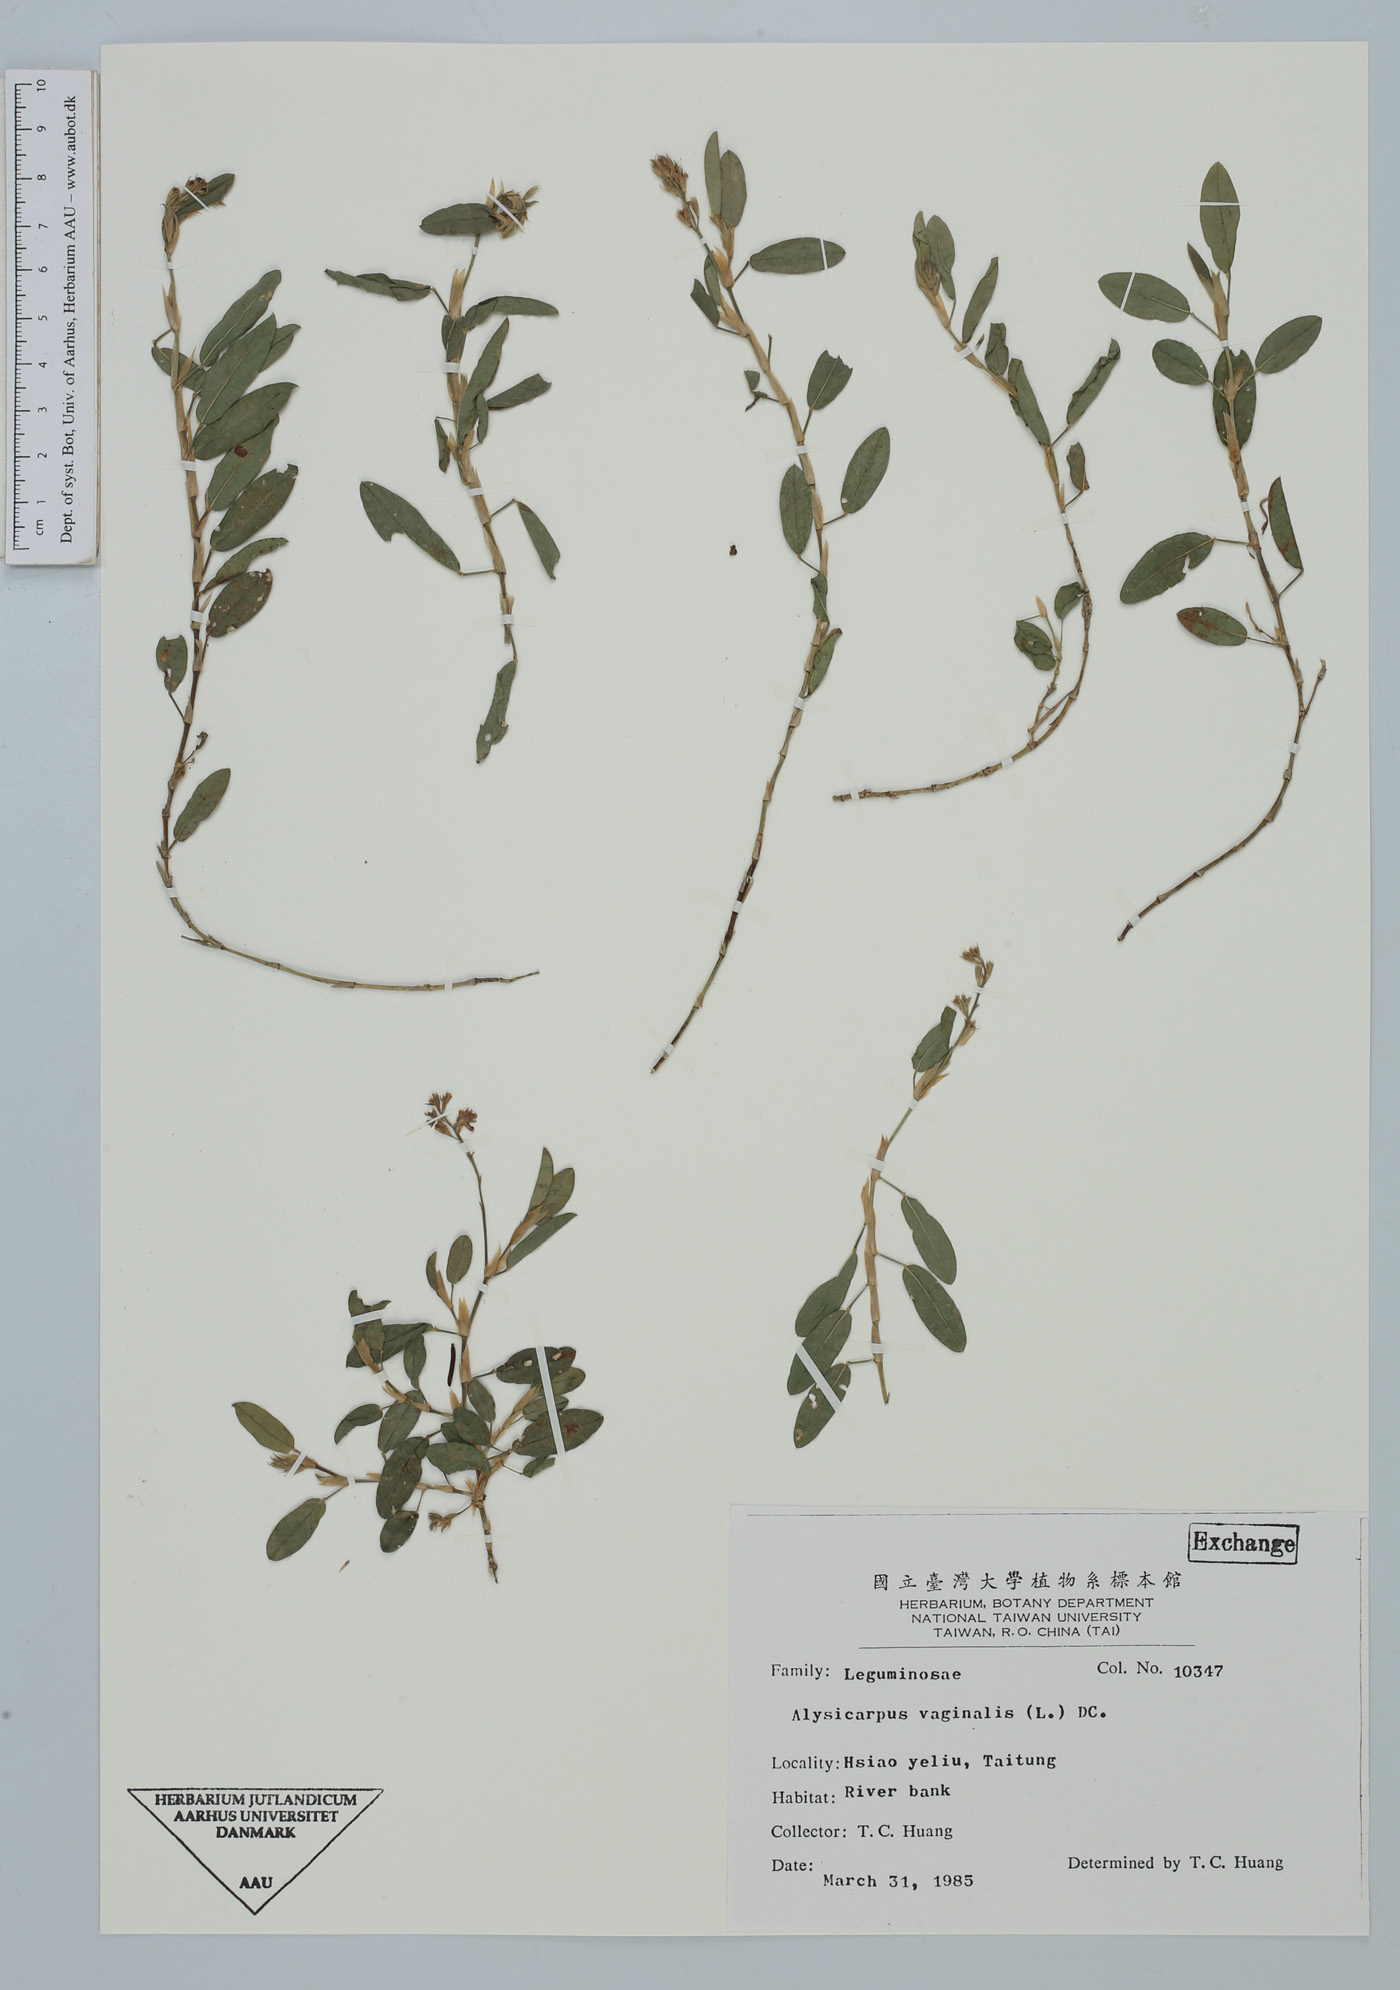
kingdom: Plantae
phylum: Tracheophyta
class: Magnoliopsida
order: Fabales
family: Fabaceae
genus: Alysicarpus
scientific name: Alysicarpus vaginalis
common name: White moneywort
